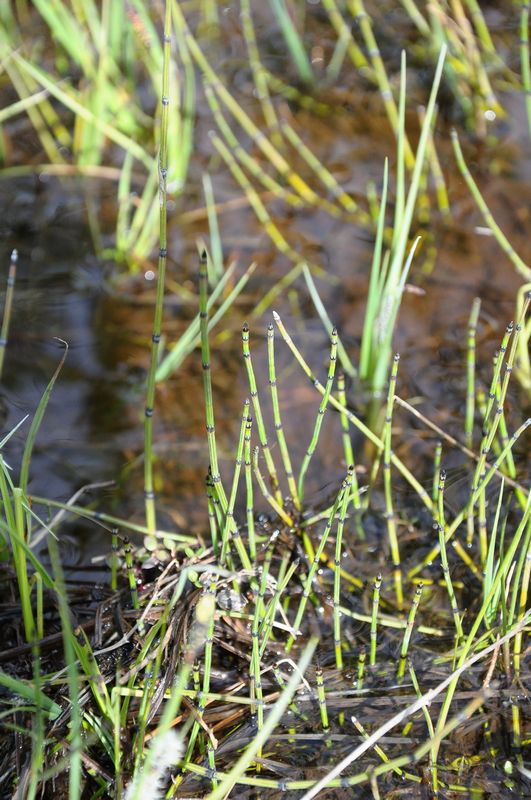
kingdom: Plantae
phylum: Tracheophyta
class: Polypodiopsida
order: Equisetales
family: Equisetaceae
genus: Equisetum
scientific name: Equisetum variegatum
